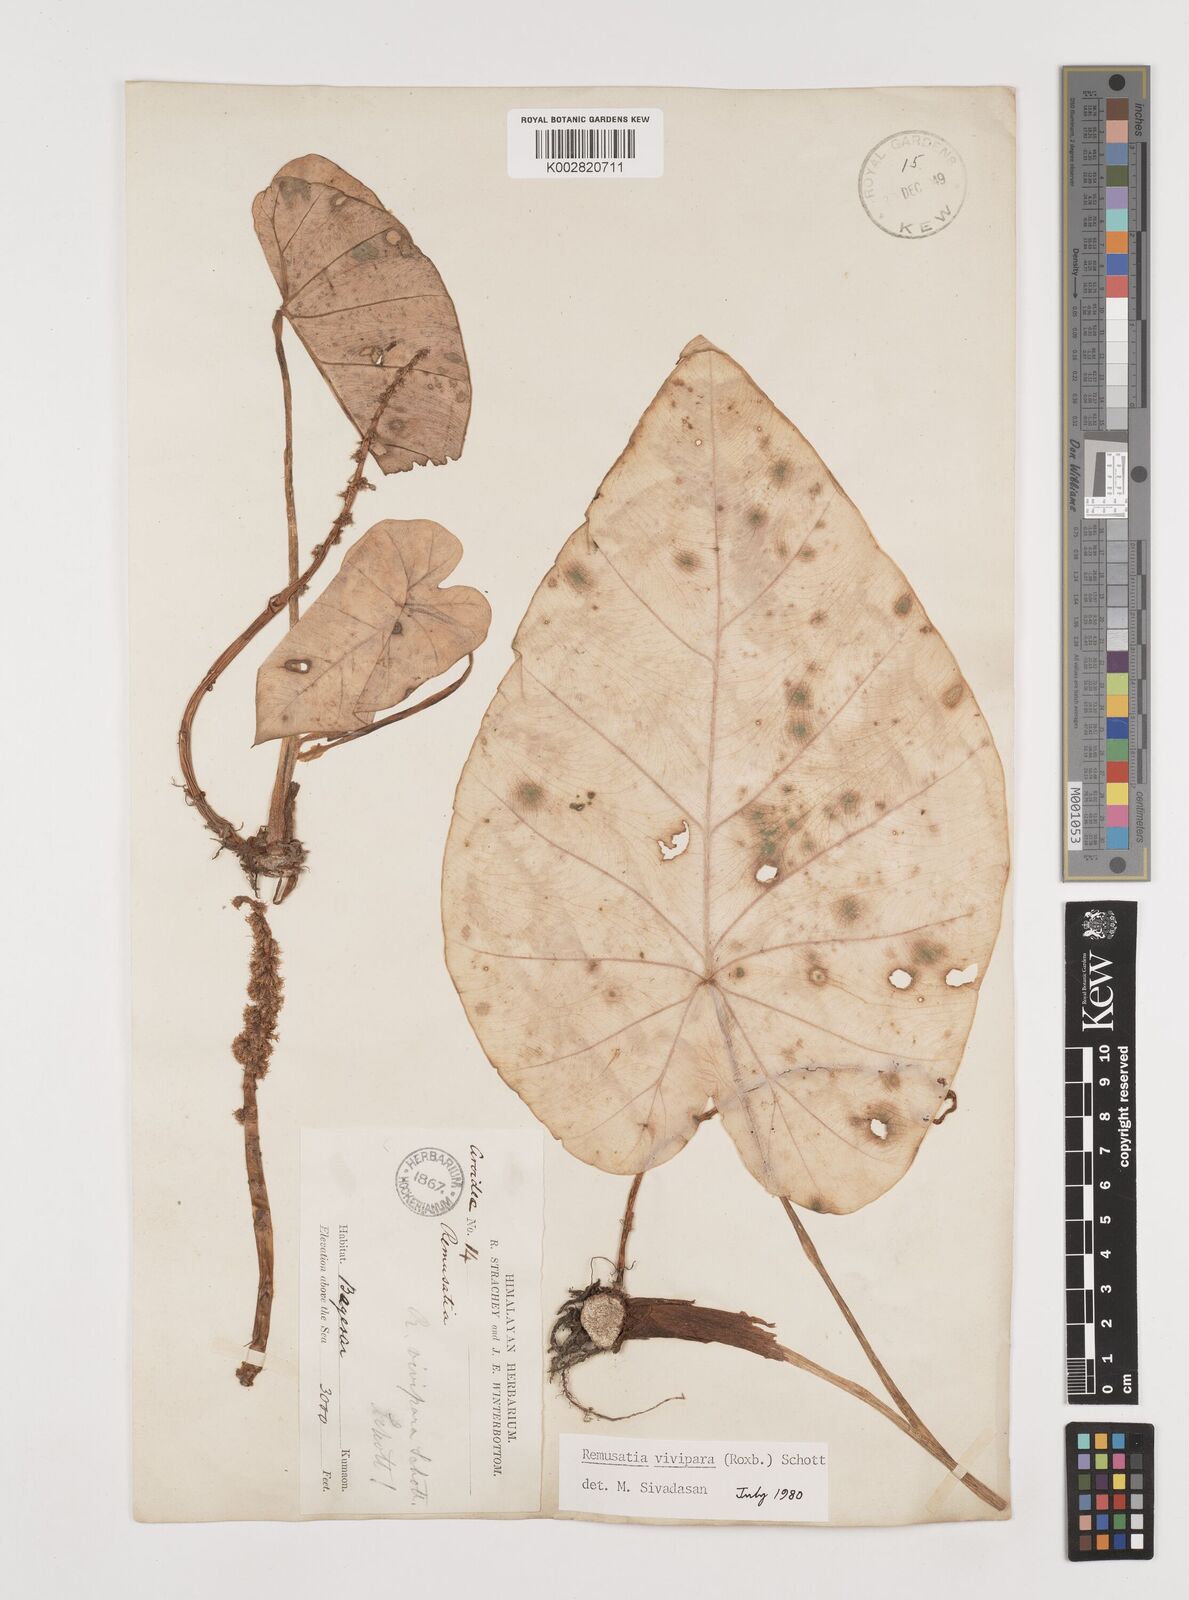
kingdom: Plantae
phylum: Tracheophyta
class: Liliopsida
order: Alismatales
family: Araceae
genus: Remusatia
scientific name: Remusatia vivipara
